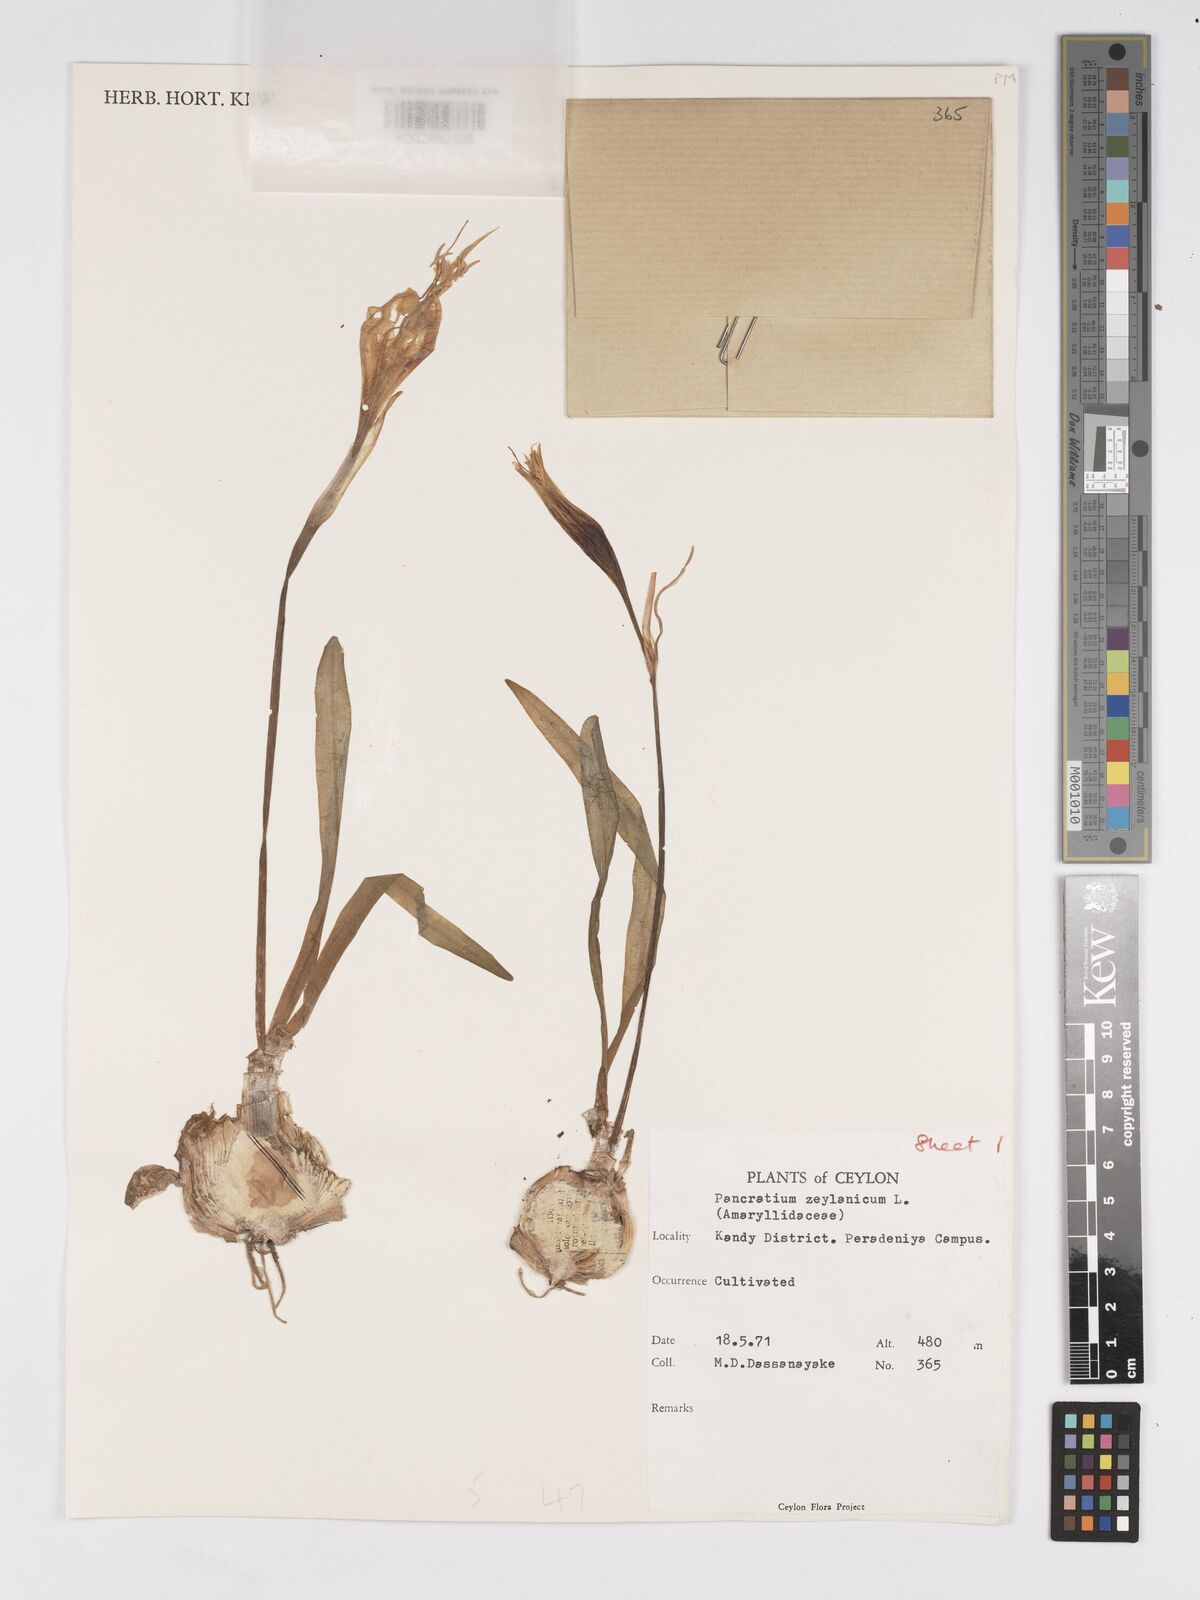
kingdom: Plantae
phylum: Tracheophyta
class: Liliopsida
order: Asparagales
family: Amaryllidaceae
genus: Pancratium
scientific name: Pancratium zeylanicum
